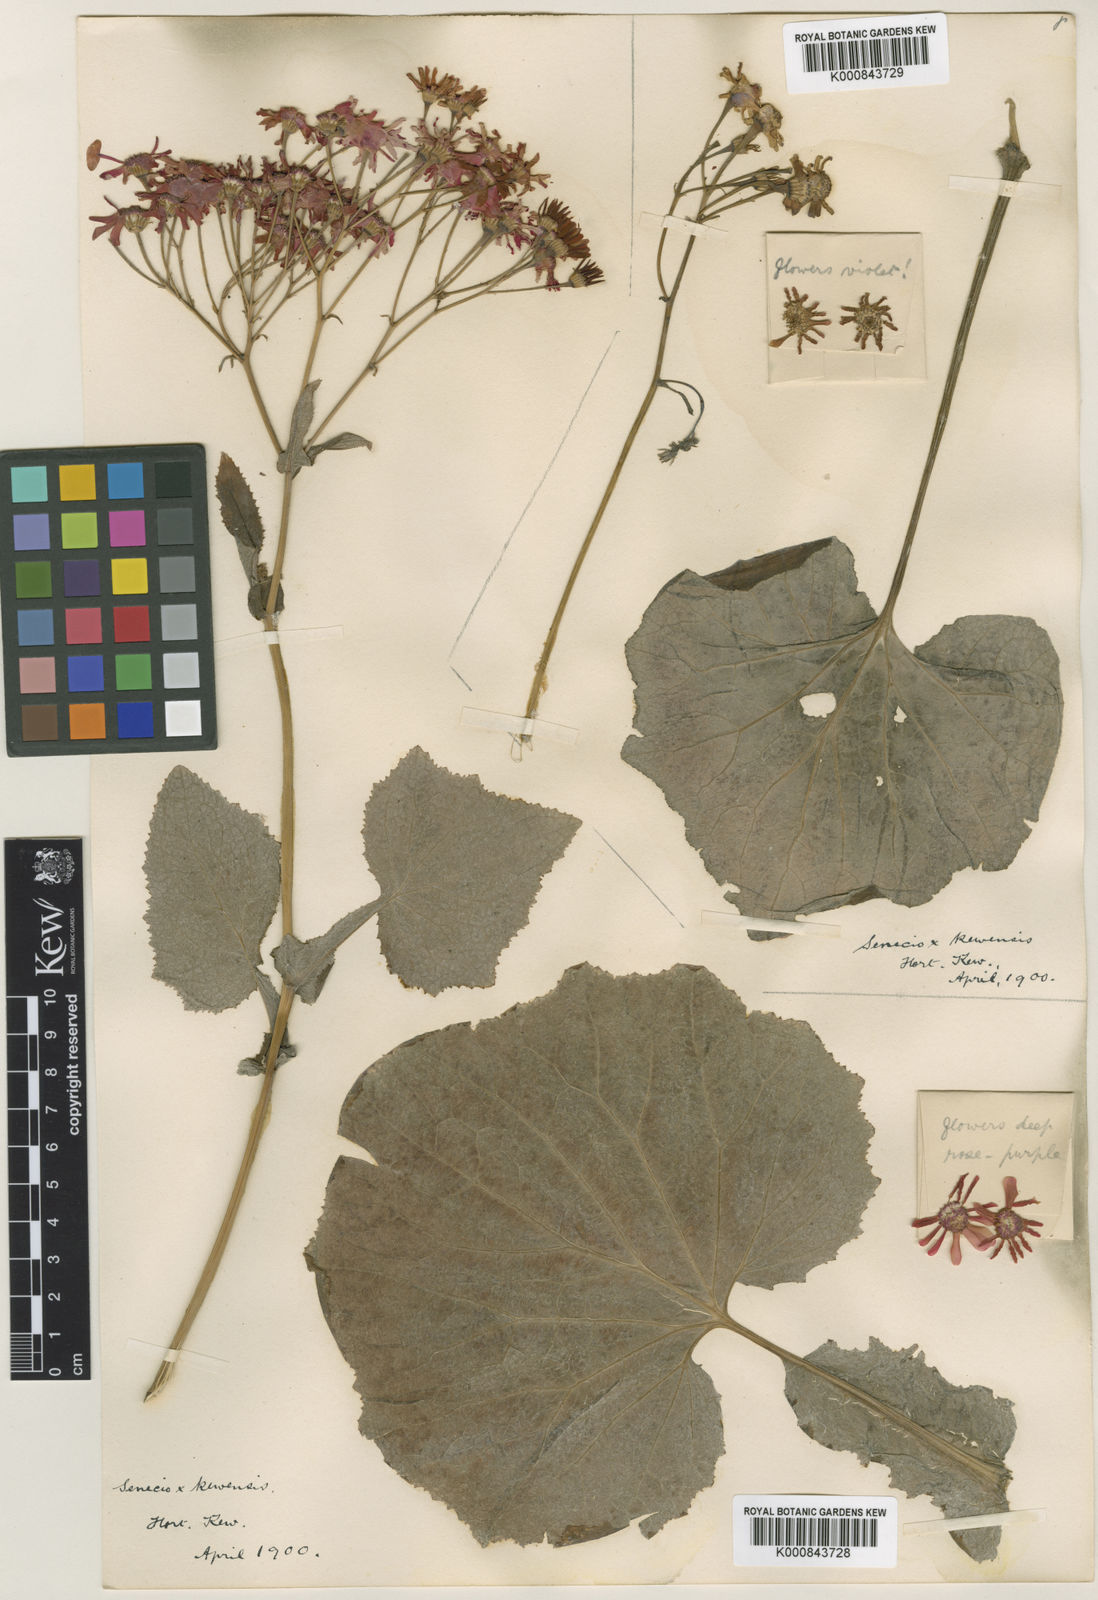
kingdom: Plantae
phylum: Tracheophyta
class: Magnoliopsida
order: Asterales
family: Asteraceae
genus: Pericallis
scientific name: Pericallis cruenta
